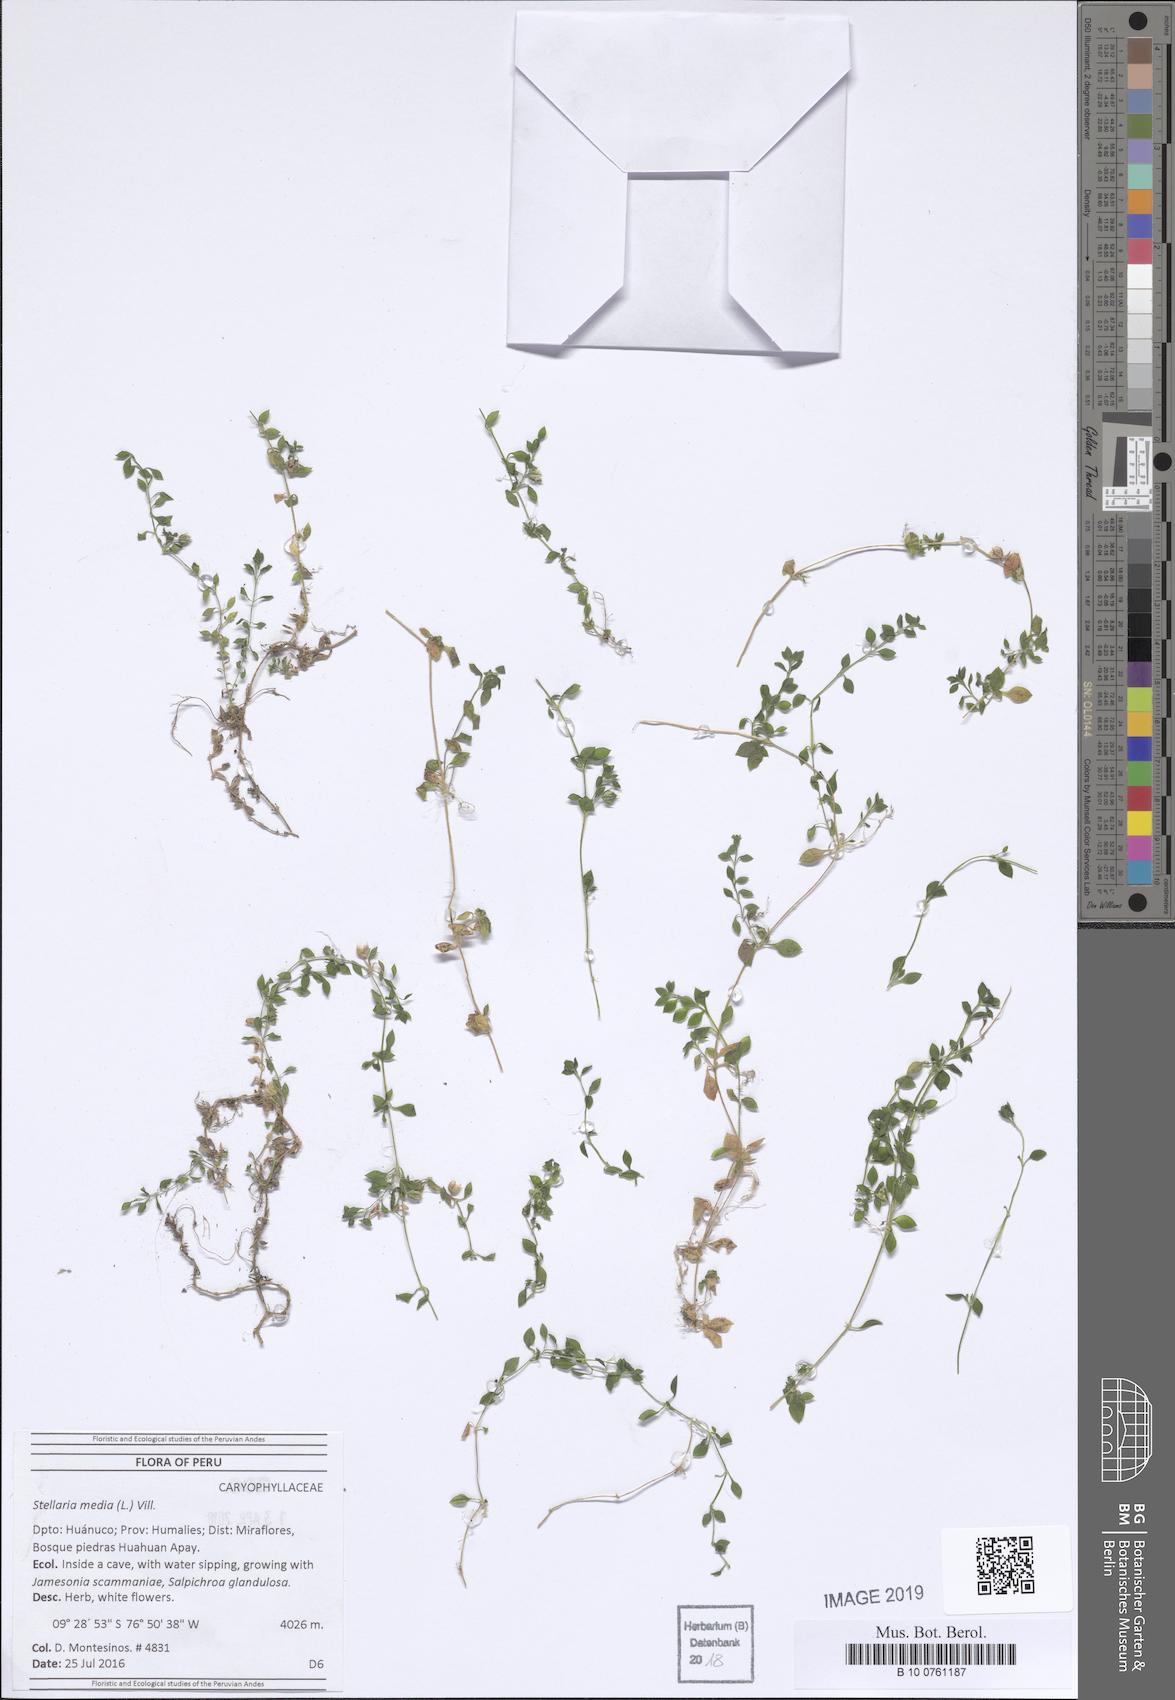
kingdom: Plantae
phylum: Tracheophyta
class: Magnoliopsida
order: Caryophyllales
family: Caryophyllaceae
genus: Stellaria
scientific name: Stellaria media
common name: Common chickweed
